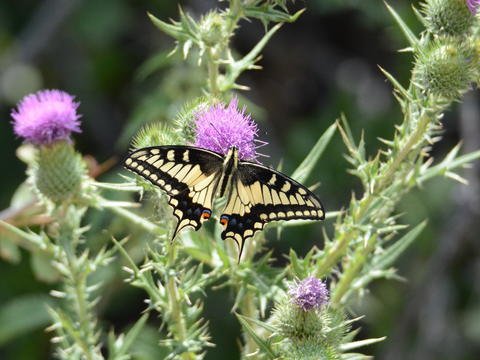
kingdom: Animalia
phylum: Arthropoda
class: Insecta
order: Lepidoptera
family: Papilionidae
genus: Papilio
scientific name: Papilio machaon
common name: Old World Swallowtail
